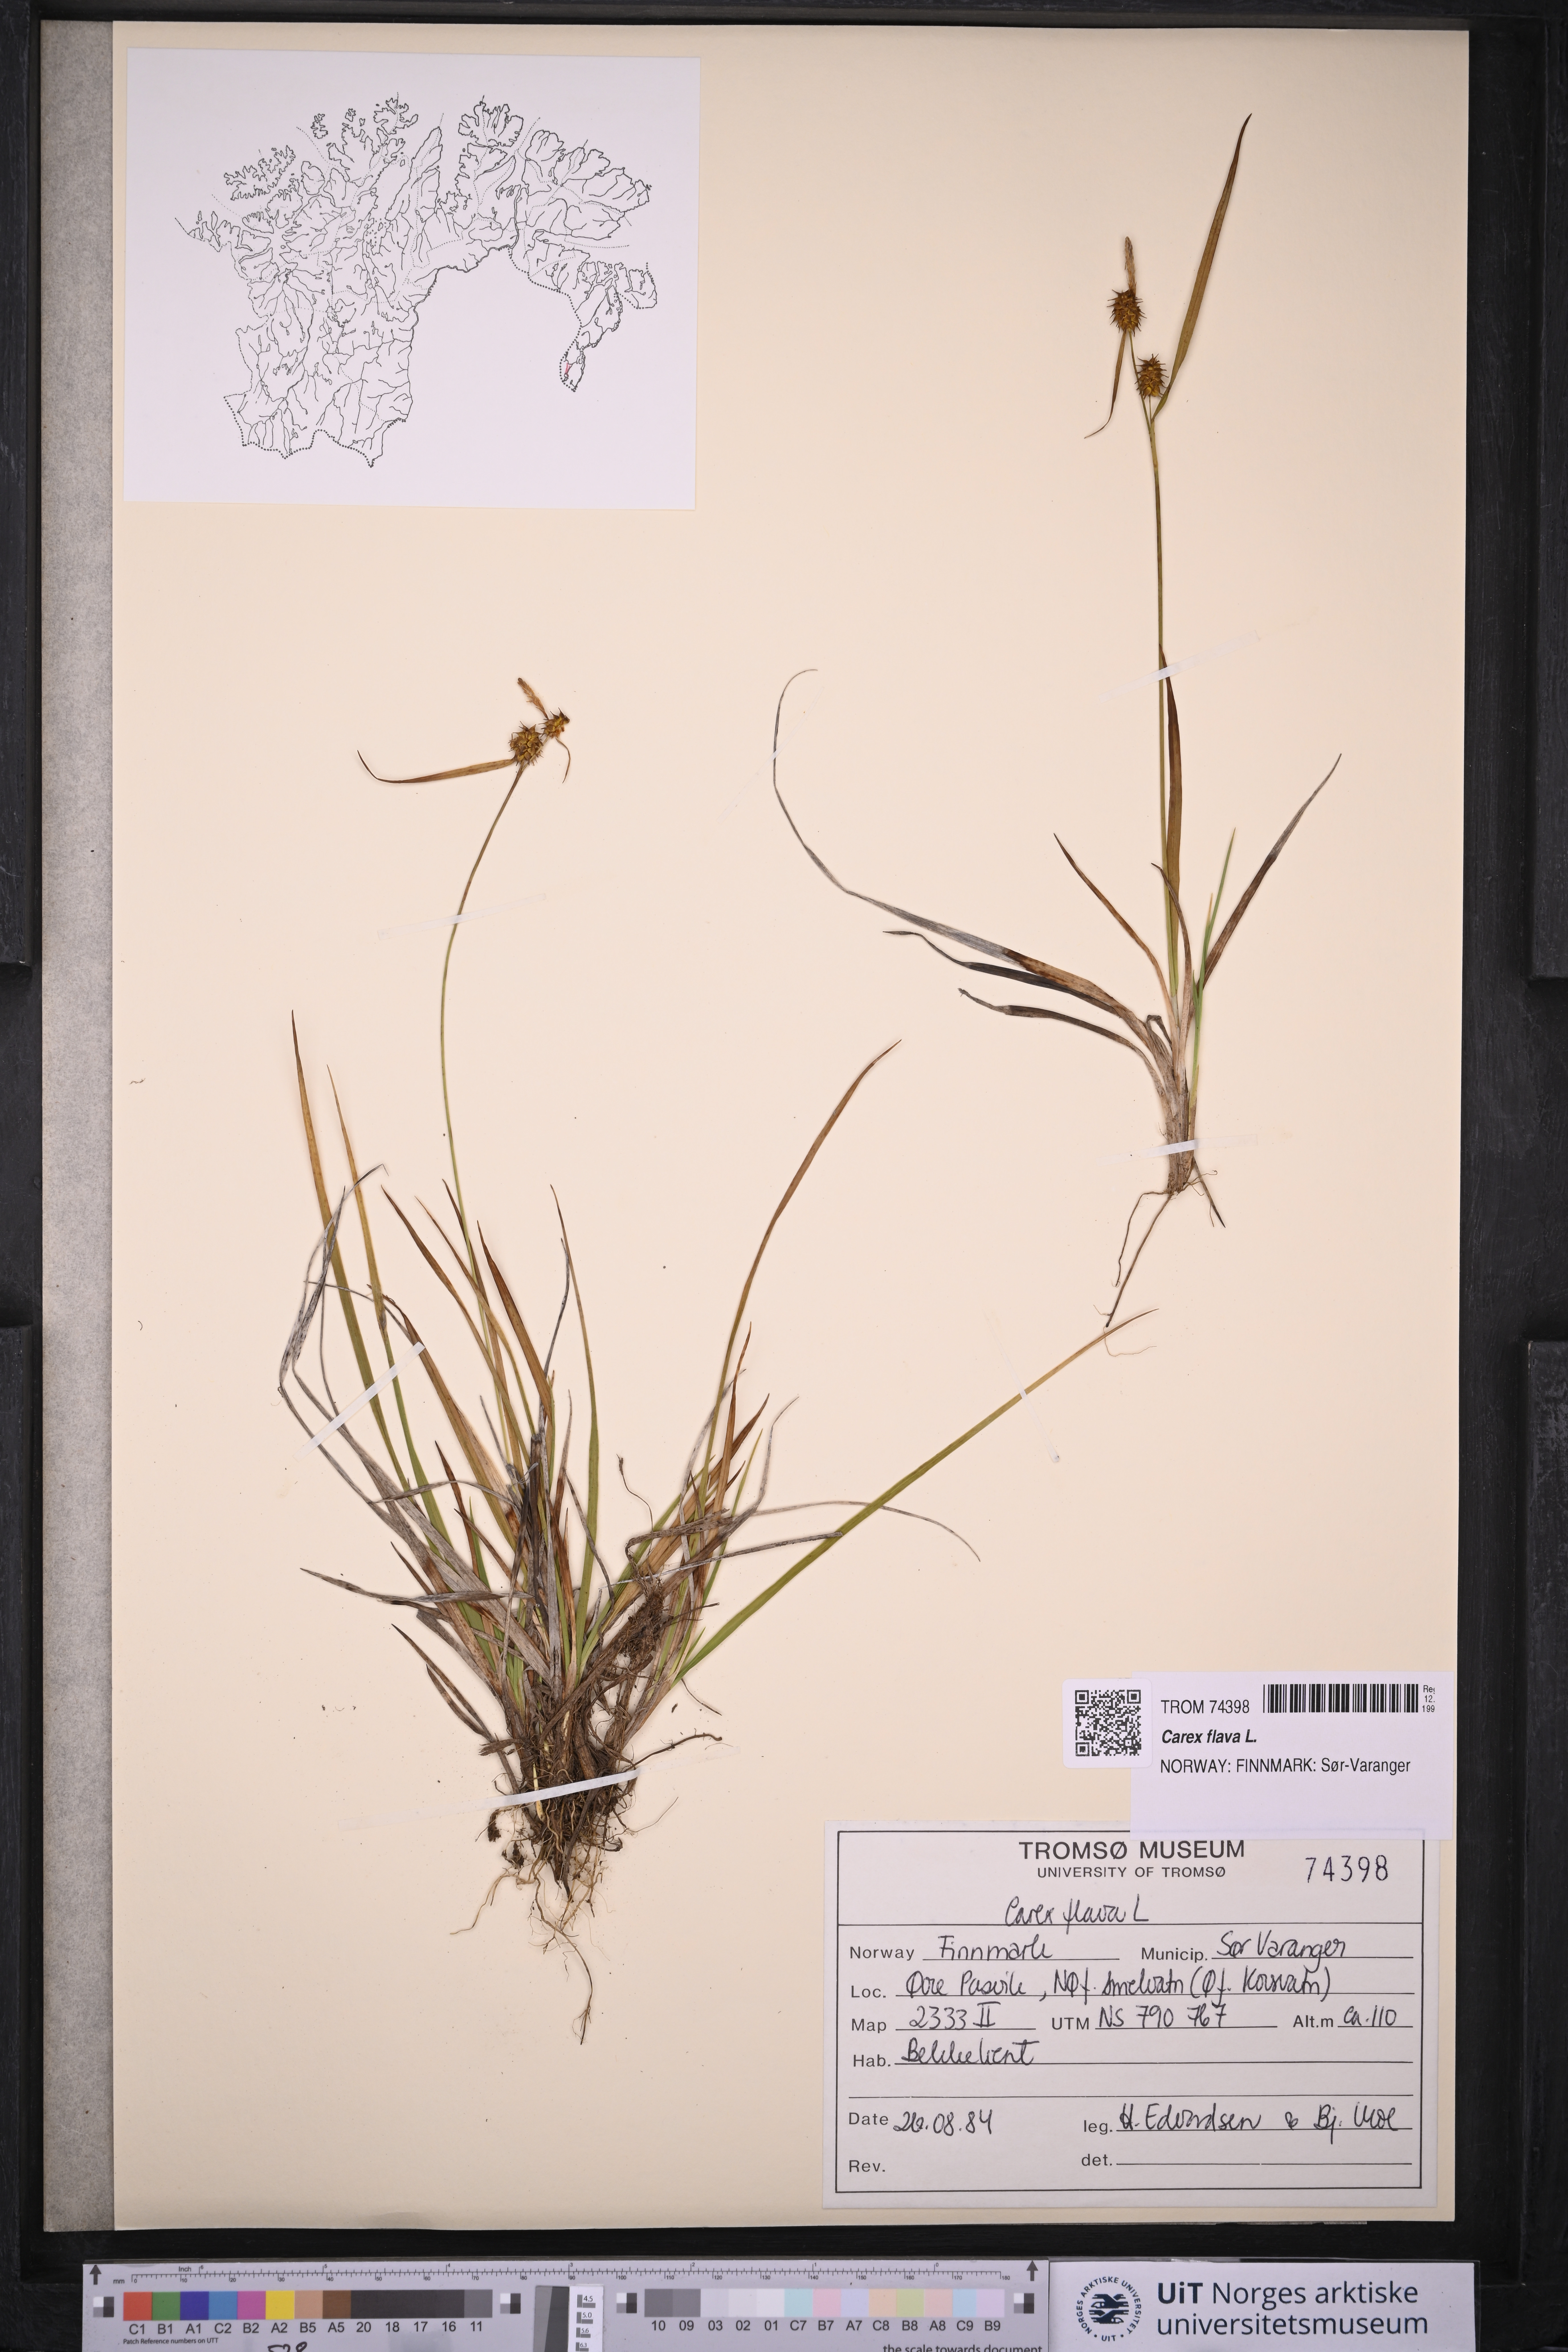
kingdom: Plantae
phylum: Tracheophyta
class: Liliopsida
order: Poales
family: Cyperaceae
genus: Carex
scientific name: Carex flava
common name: Large yellow-sedge
